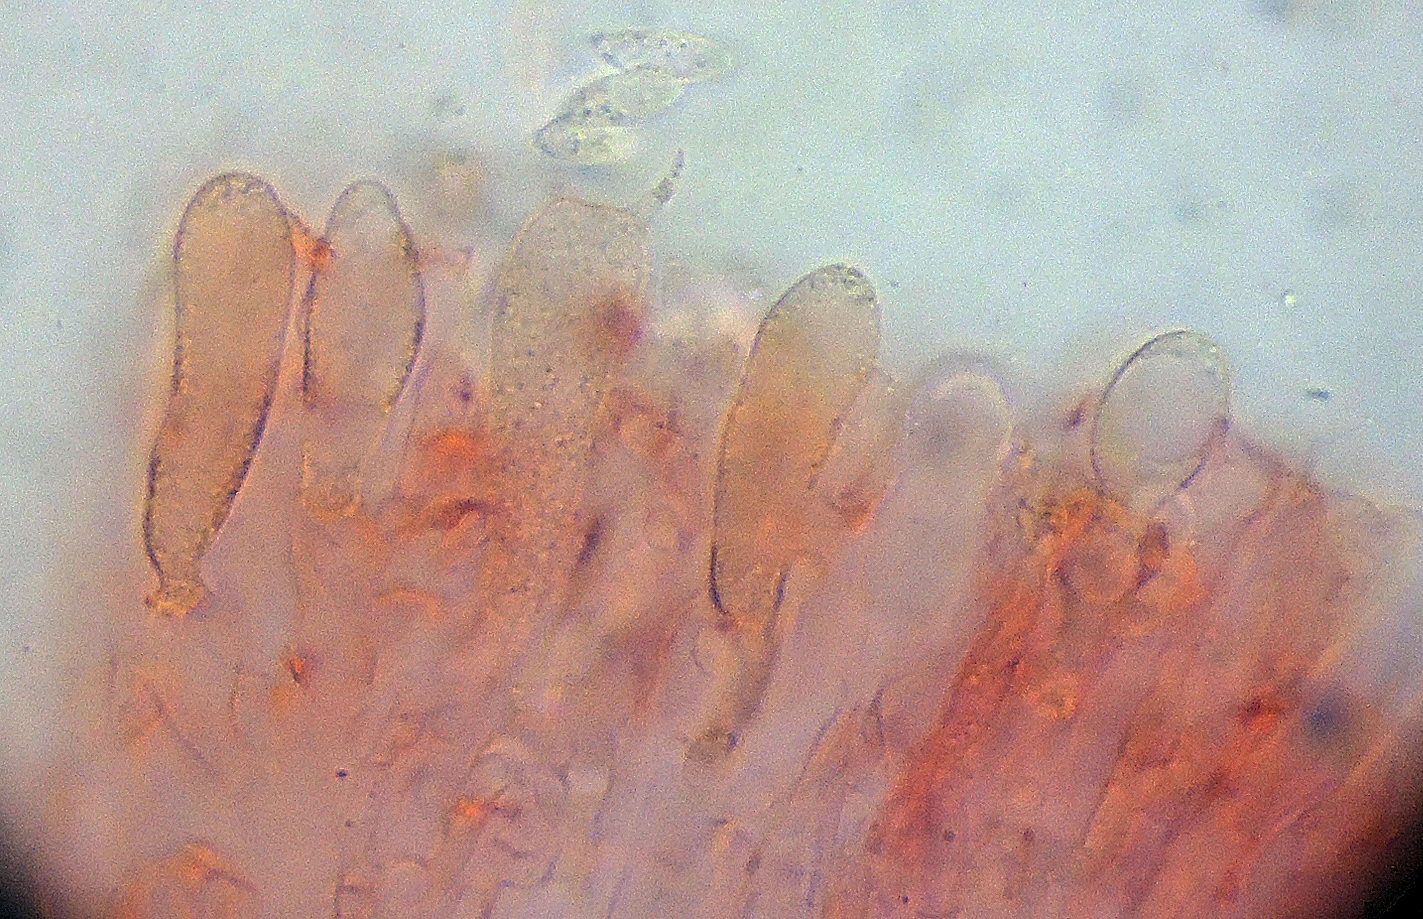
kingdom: Fungi
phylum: Basidiomycota
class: Agaricomycetes
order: Agaricales
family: Pterulaceae
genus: Pterulicium
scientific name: Pterulicium caricis-pendulae
